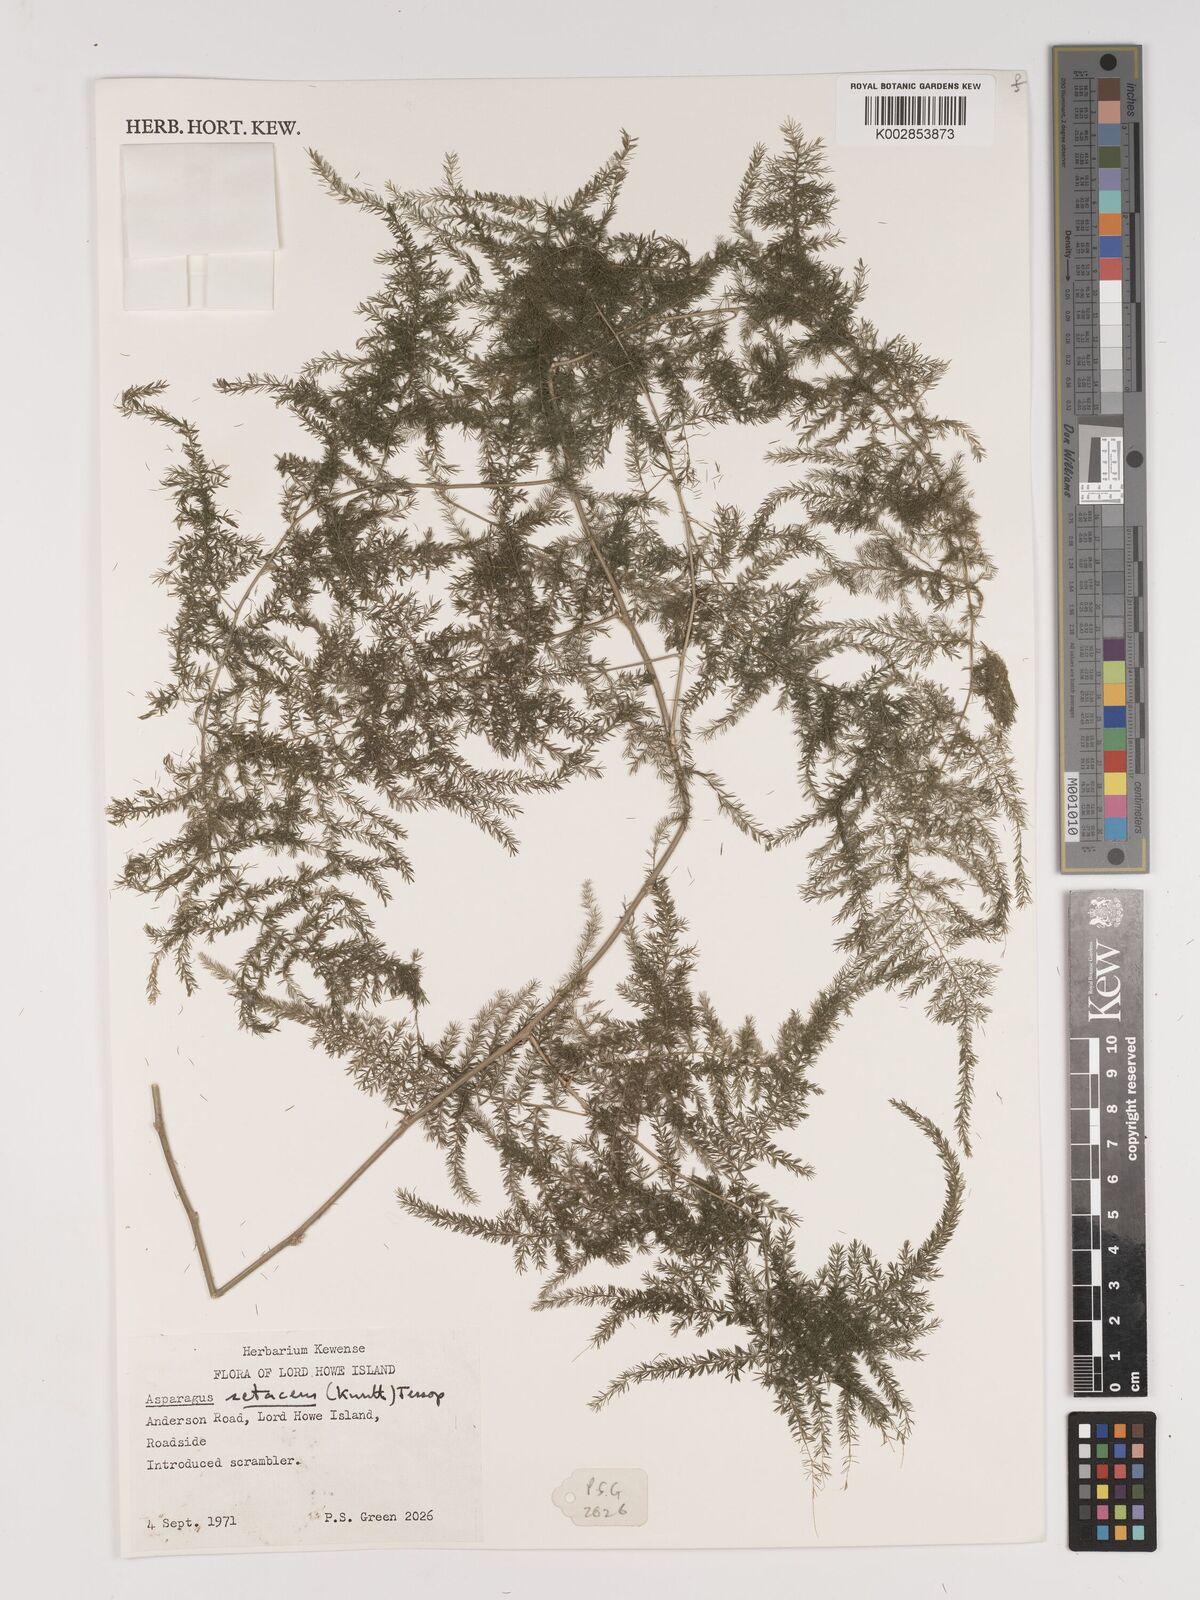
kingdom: Plantae
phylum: Tracheophyta
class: Liliopsida
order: Asparagales
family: Asparagaceae
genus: Asparagus
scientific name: Asparagus setaceus
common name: Common asparagus fern
